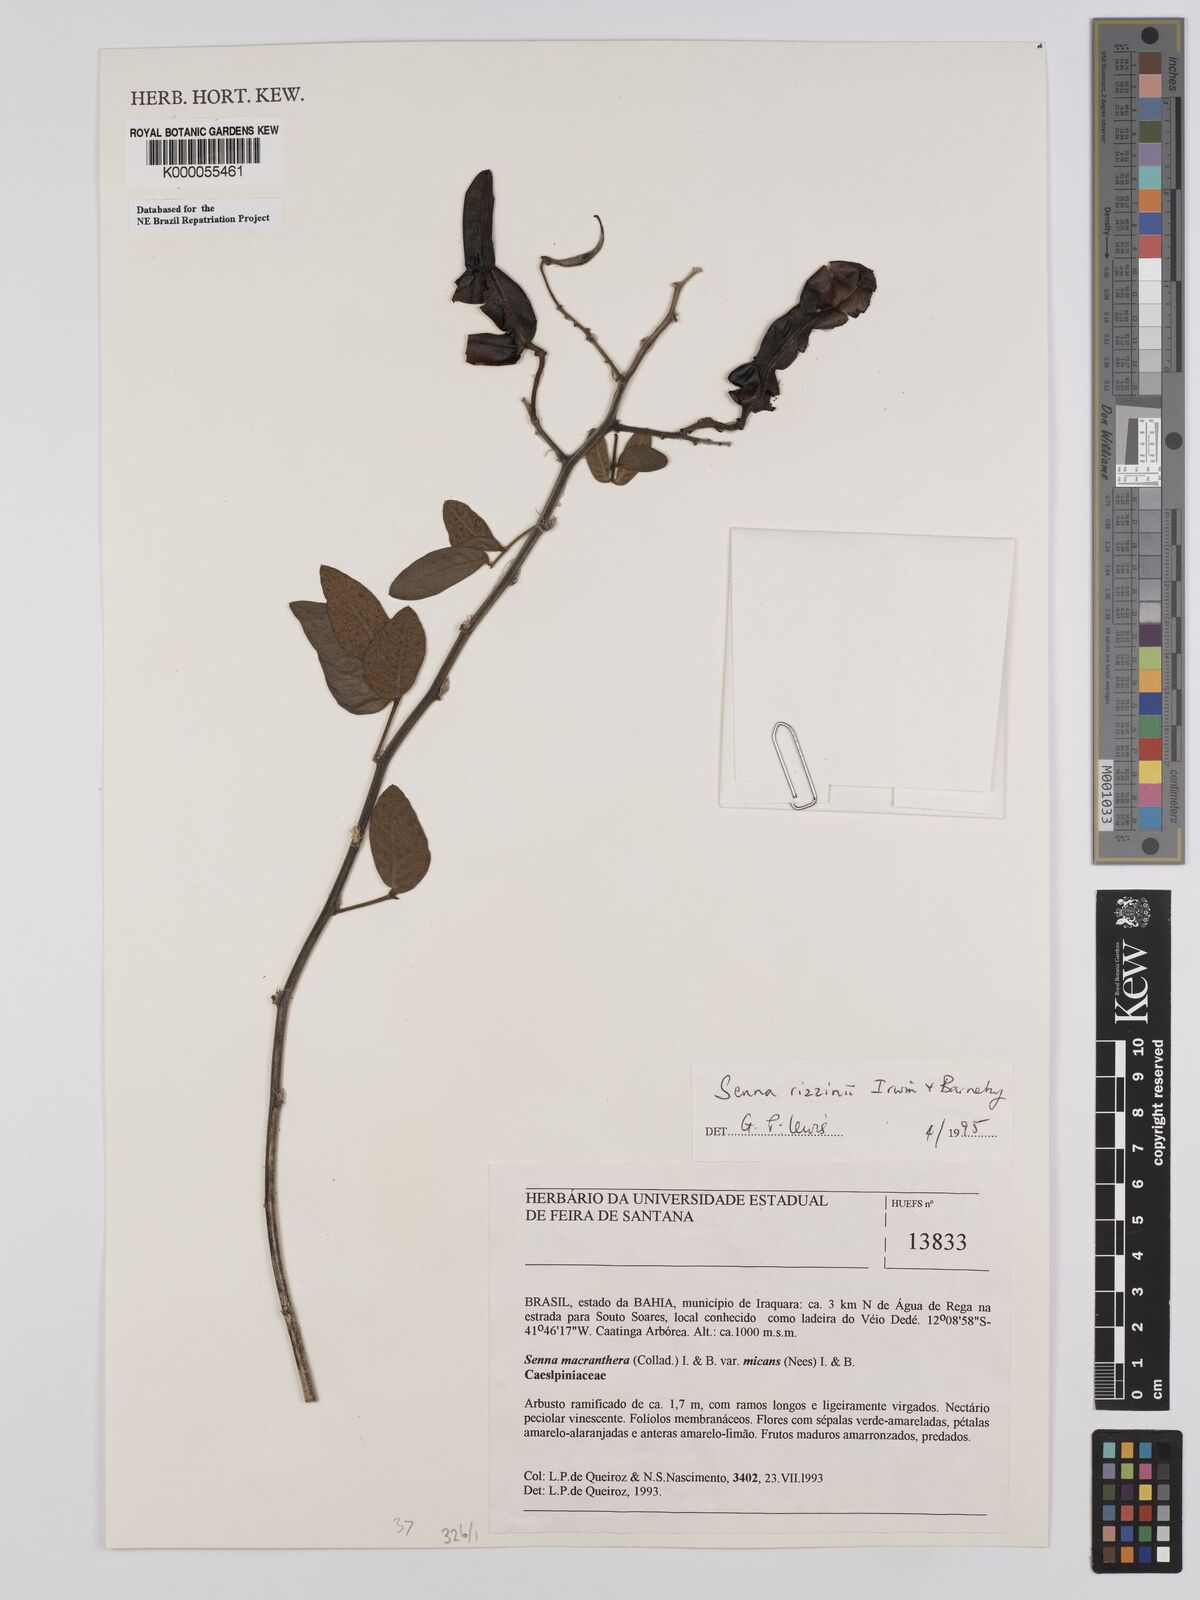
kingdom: Plantae
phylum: Tracheophyta
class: Magnoliopsida
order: Fabales
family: Fabaceae
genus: Senna
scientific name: Senna macranthera
